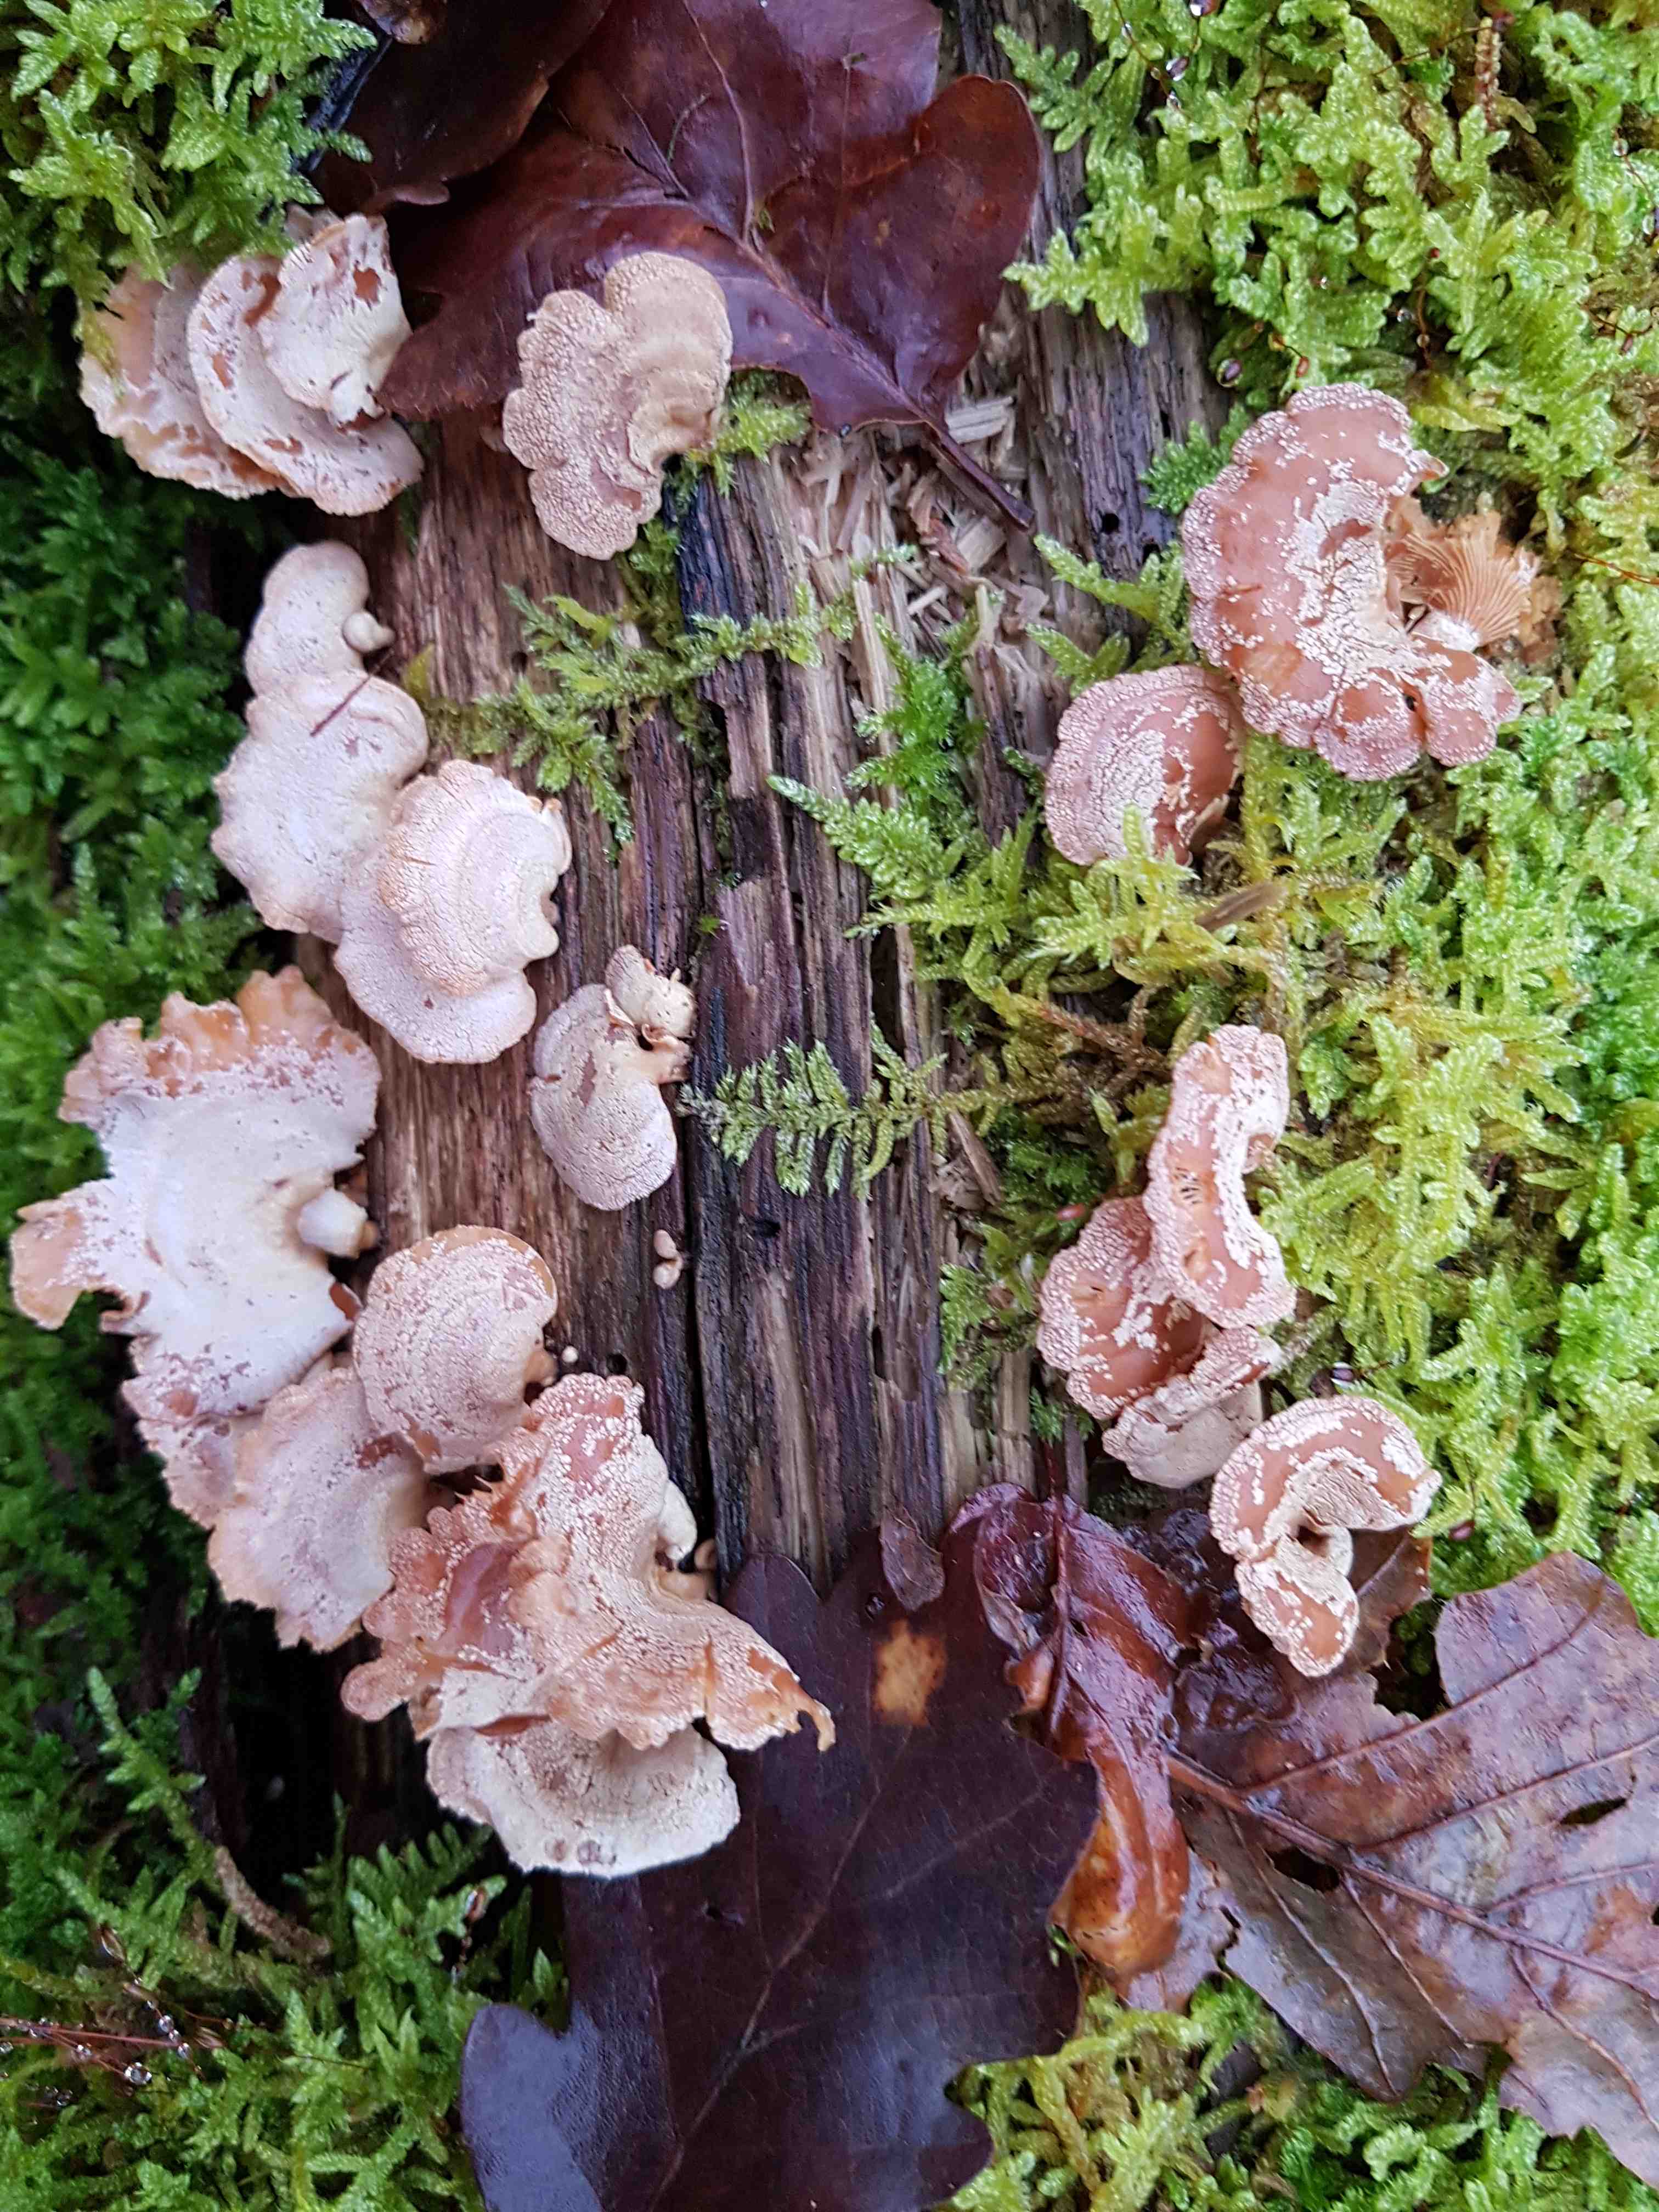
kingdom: Fungi
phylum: Basidiomycota
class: Agaricomycetes
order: Agaricales
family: Mycenaceae
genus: Panellus
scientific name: Panellus stipticus
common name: kliddet epaulethat
